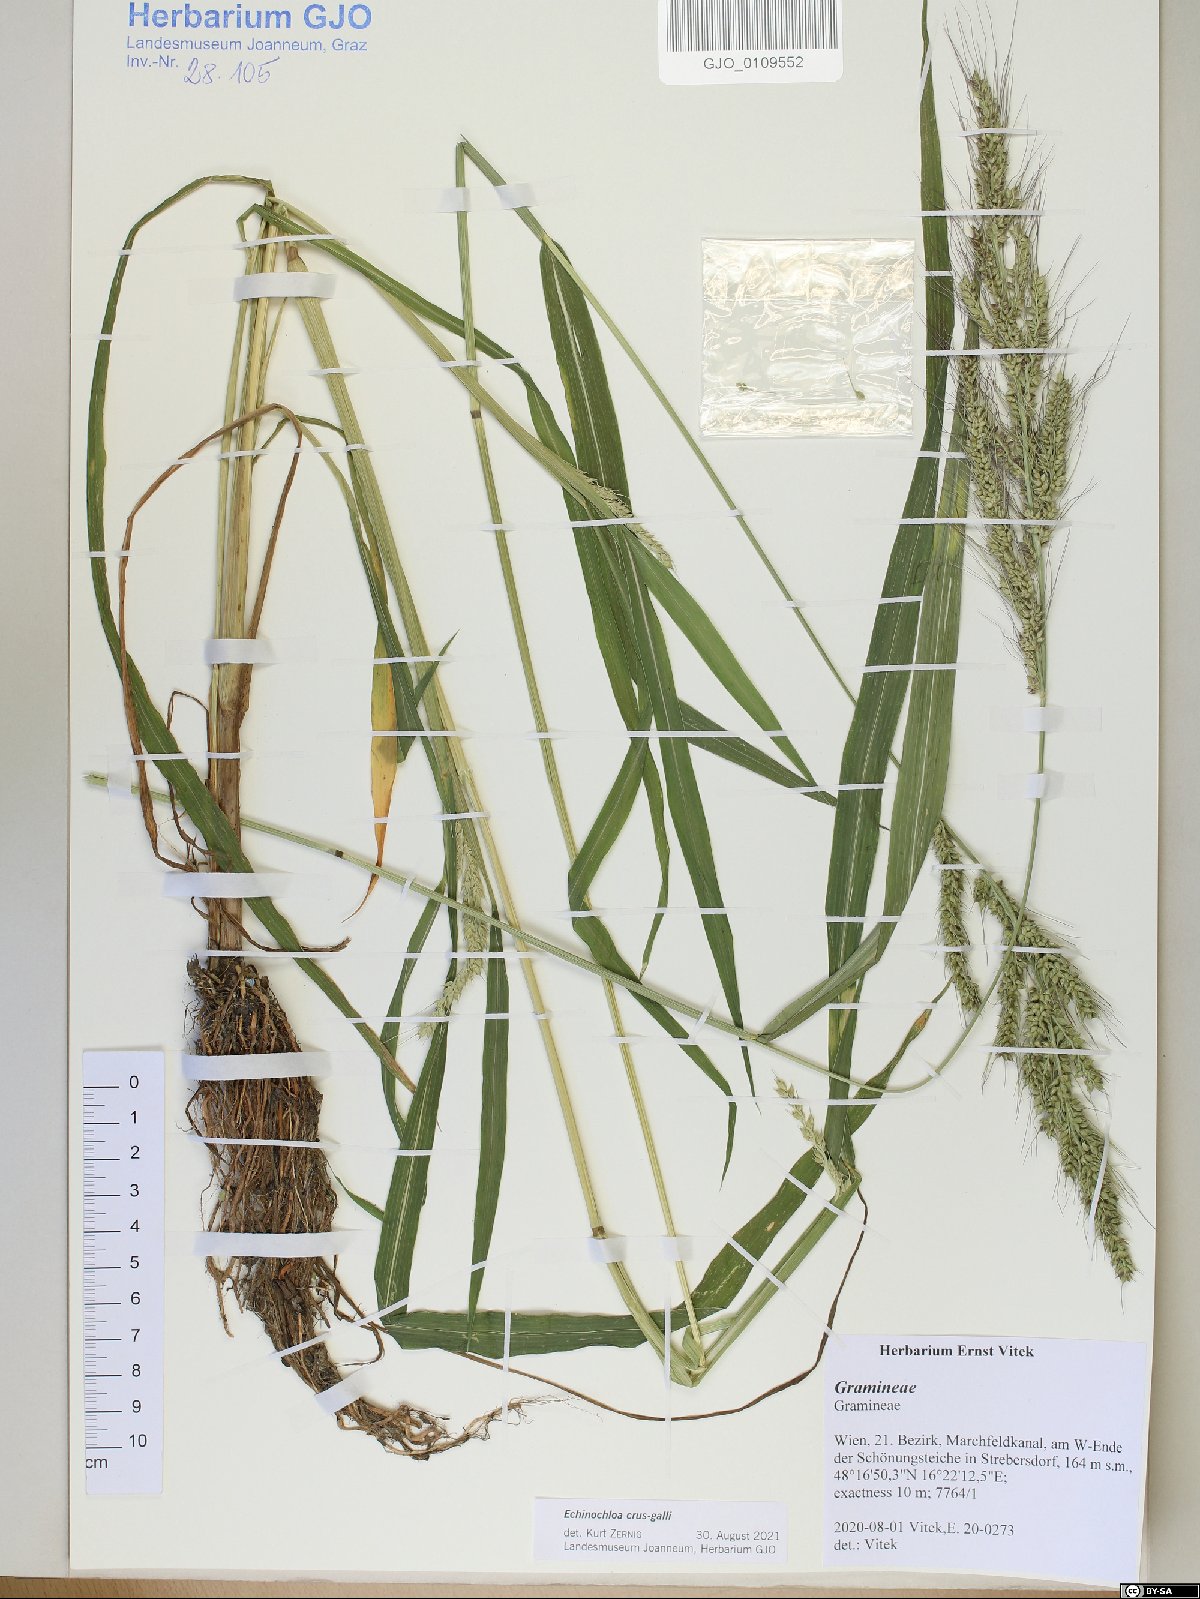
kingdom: Plantae
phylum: Tracheophyta
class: Liliopsida
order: Poales
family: Poaceae
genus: Echinochloa
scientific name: Echinochloa crus-galli
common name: Cockspur
